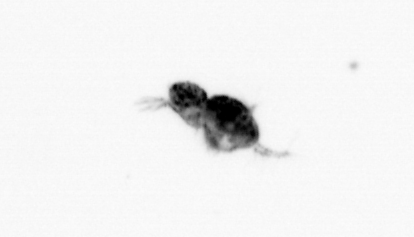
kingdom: Animalia
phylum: Arthropoda
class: Copepoda
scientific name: Copepoda
